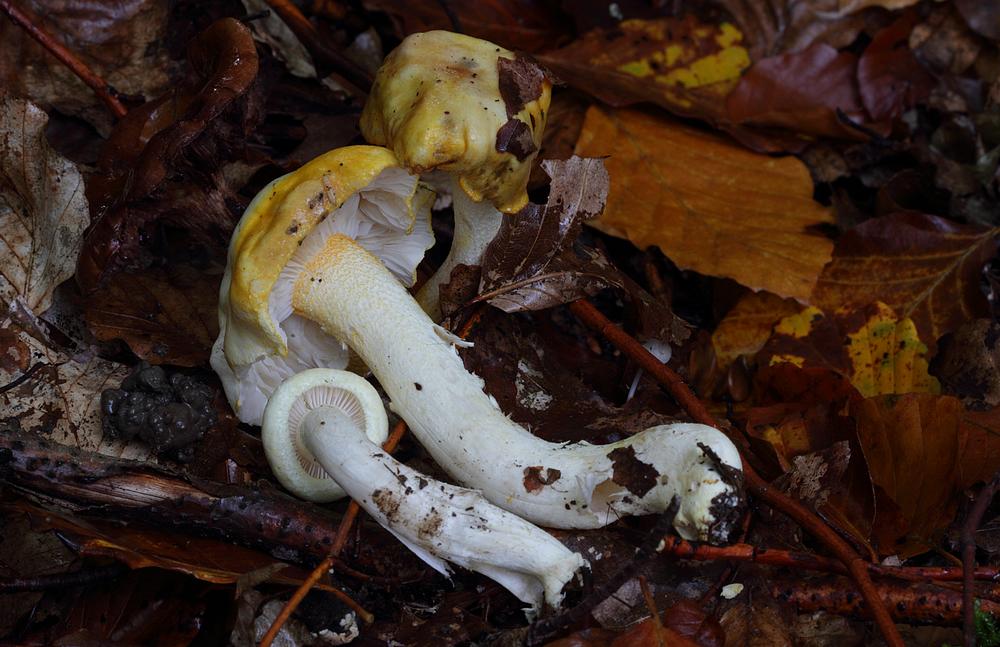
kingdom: Fungi
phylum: Basidiomycota
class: Agaricomycetes
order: Agaricales
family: Hygrophoraceae
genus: Hygrophorus
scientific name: Hygrophorus chrysodon
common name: gulfnugget sneglehat
